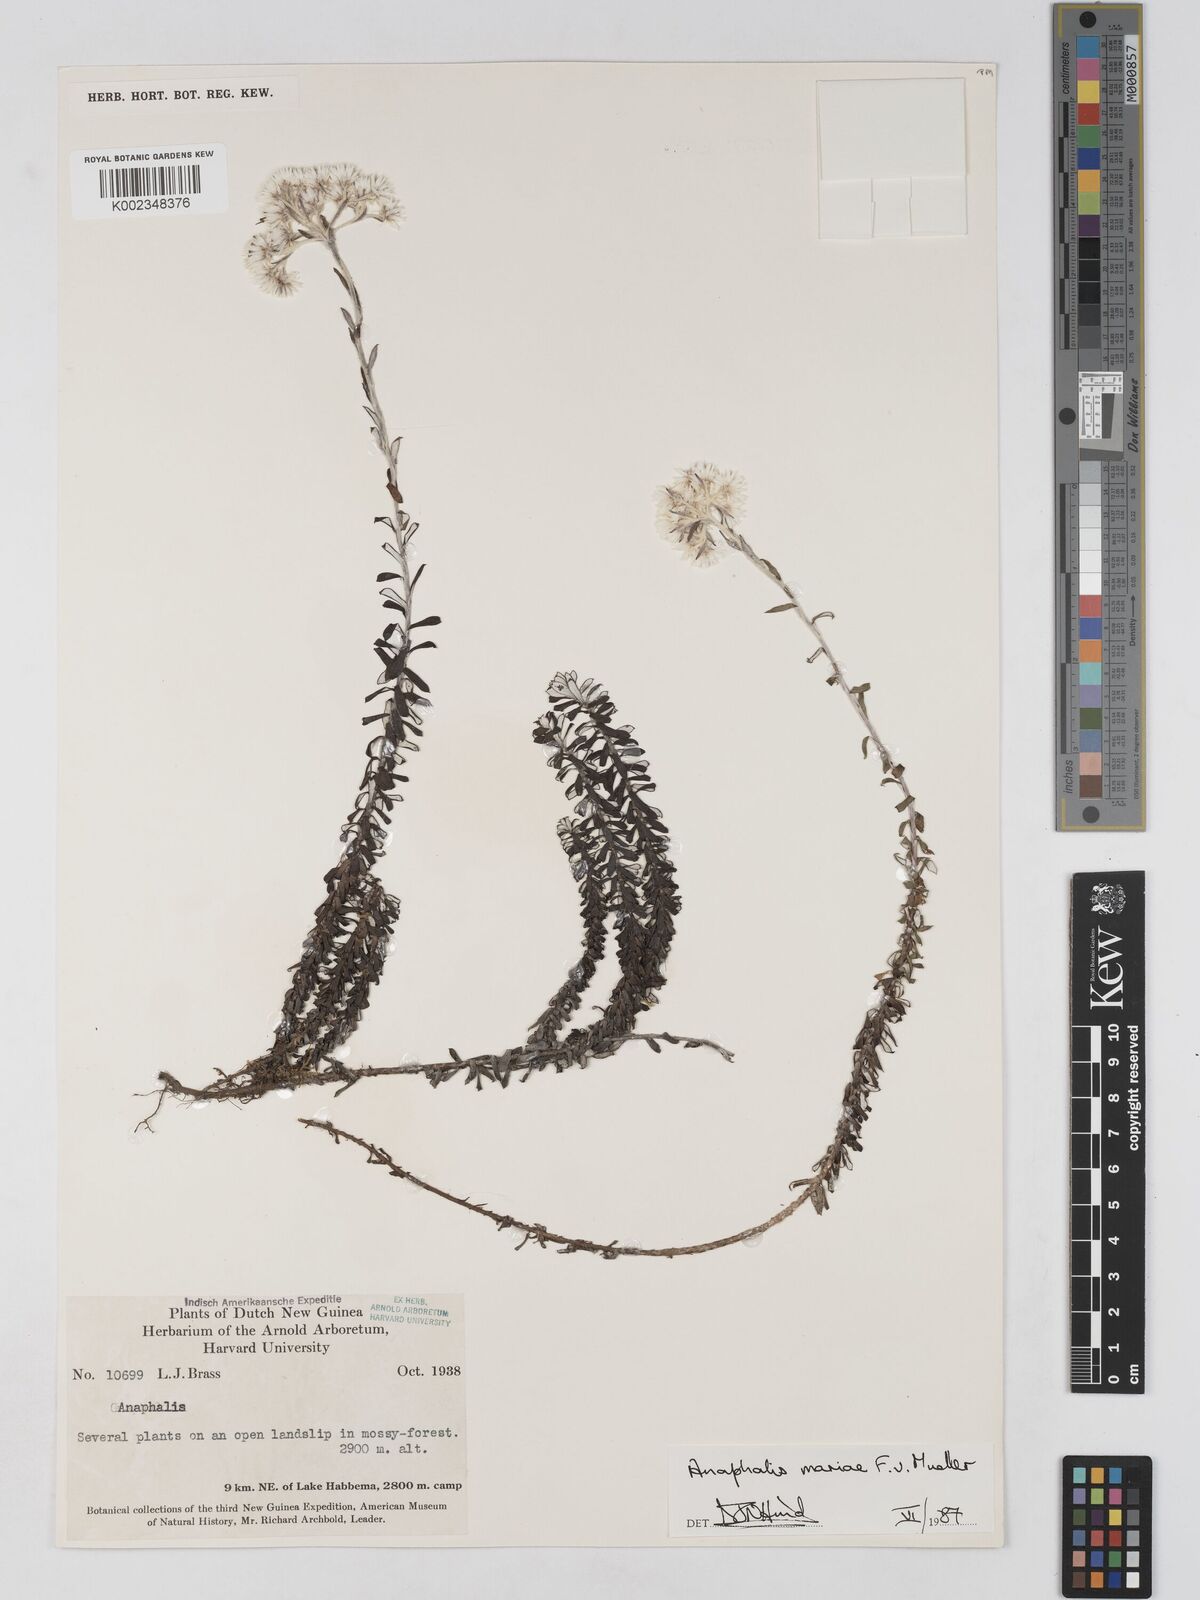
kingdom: Plantae
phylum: Tracheophyta
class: Magnoliopsida
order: Asterales
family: Asteraceae
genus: Anaphalioides
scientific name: Anaphalioides mariae
